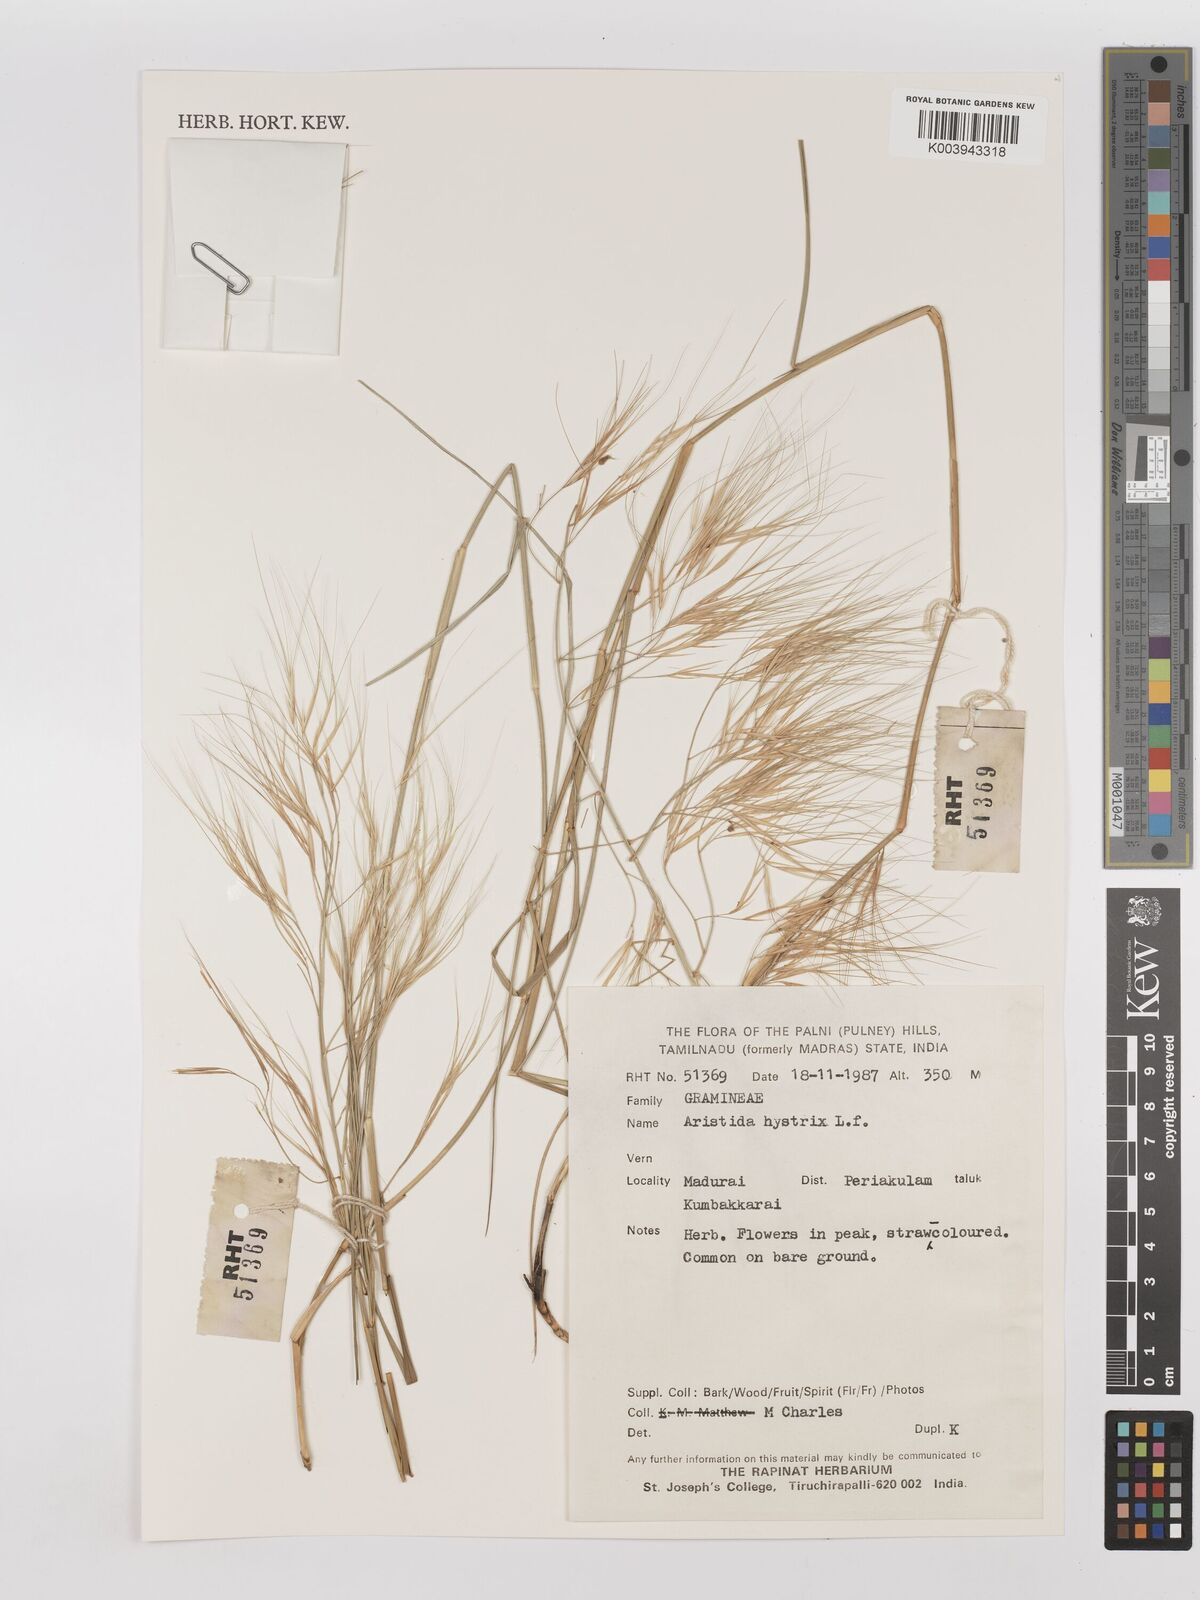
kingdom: Plantae
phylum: Tracheophyta
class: Liliopsida
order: Poales
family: Poaceae
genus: Aristida
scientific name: Aristida hystrix
